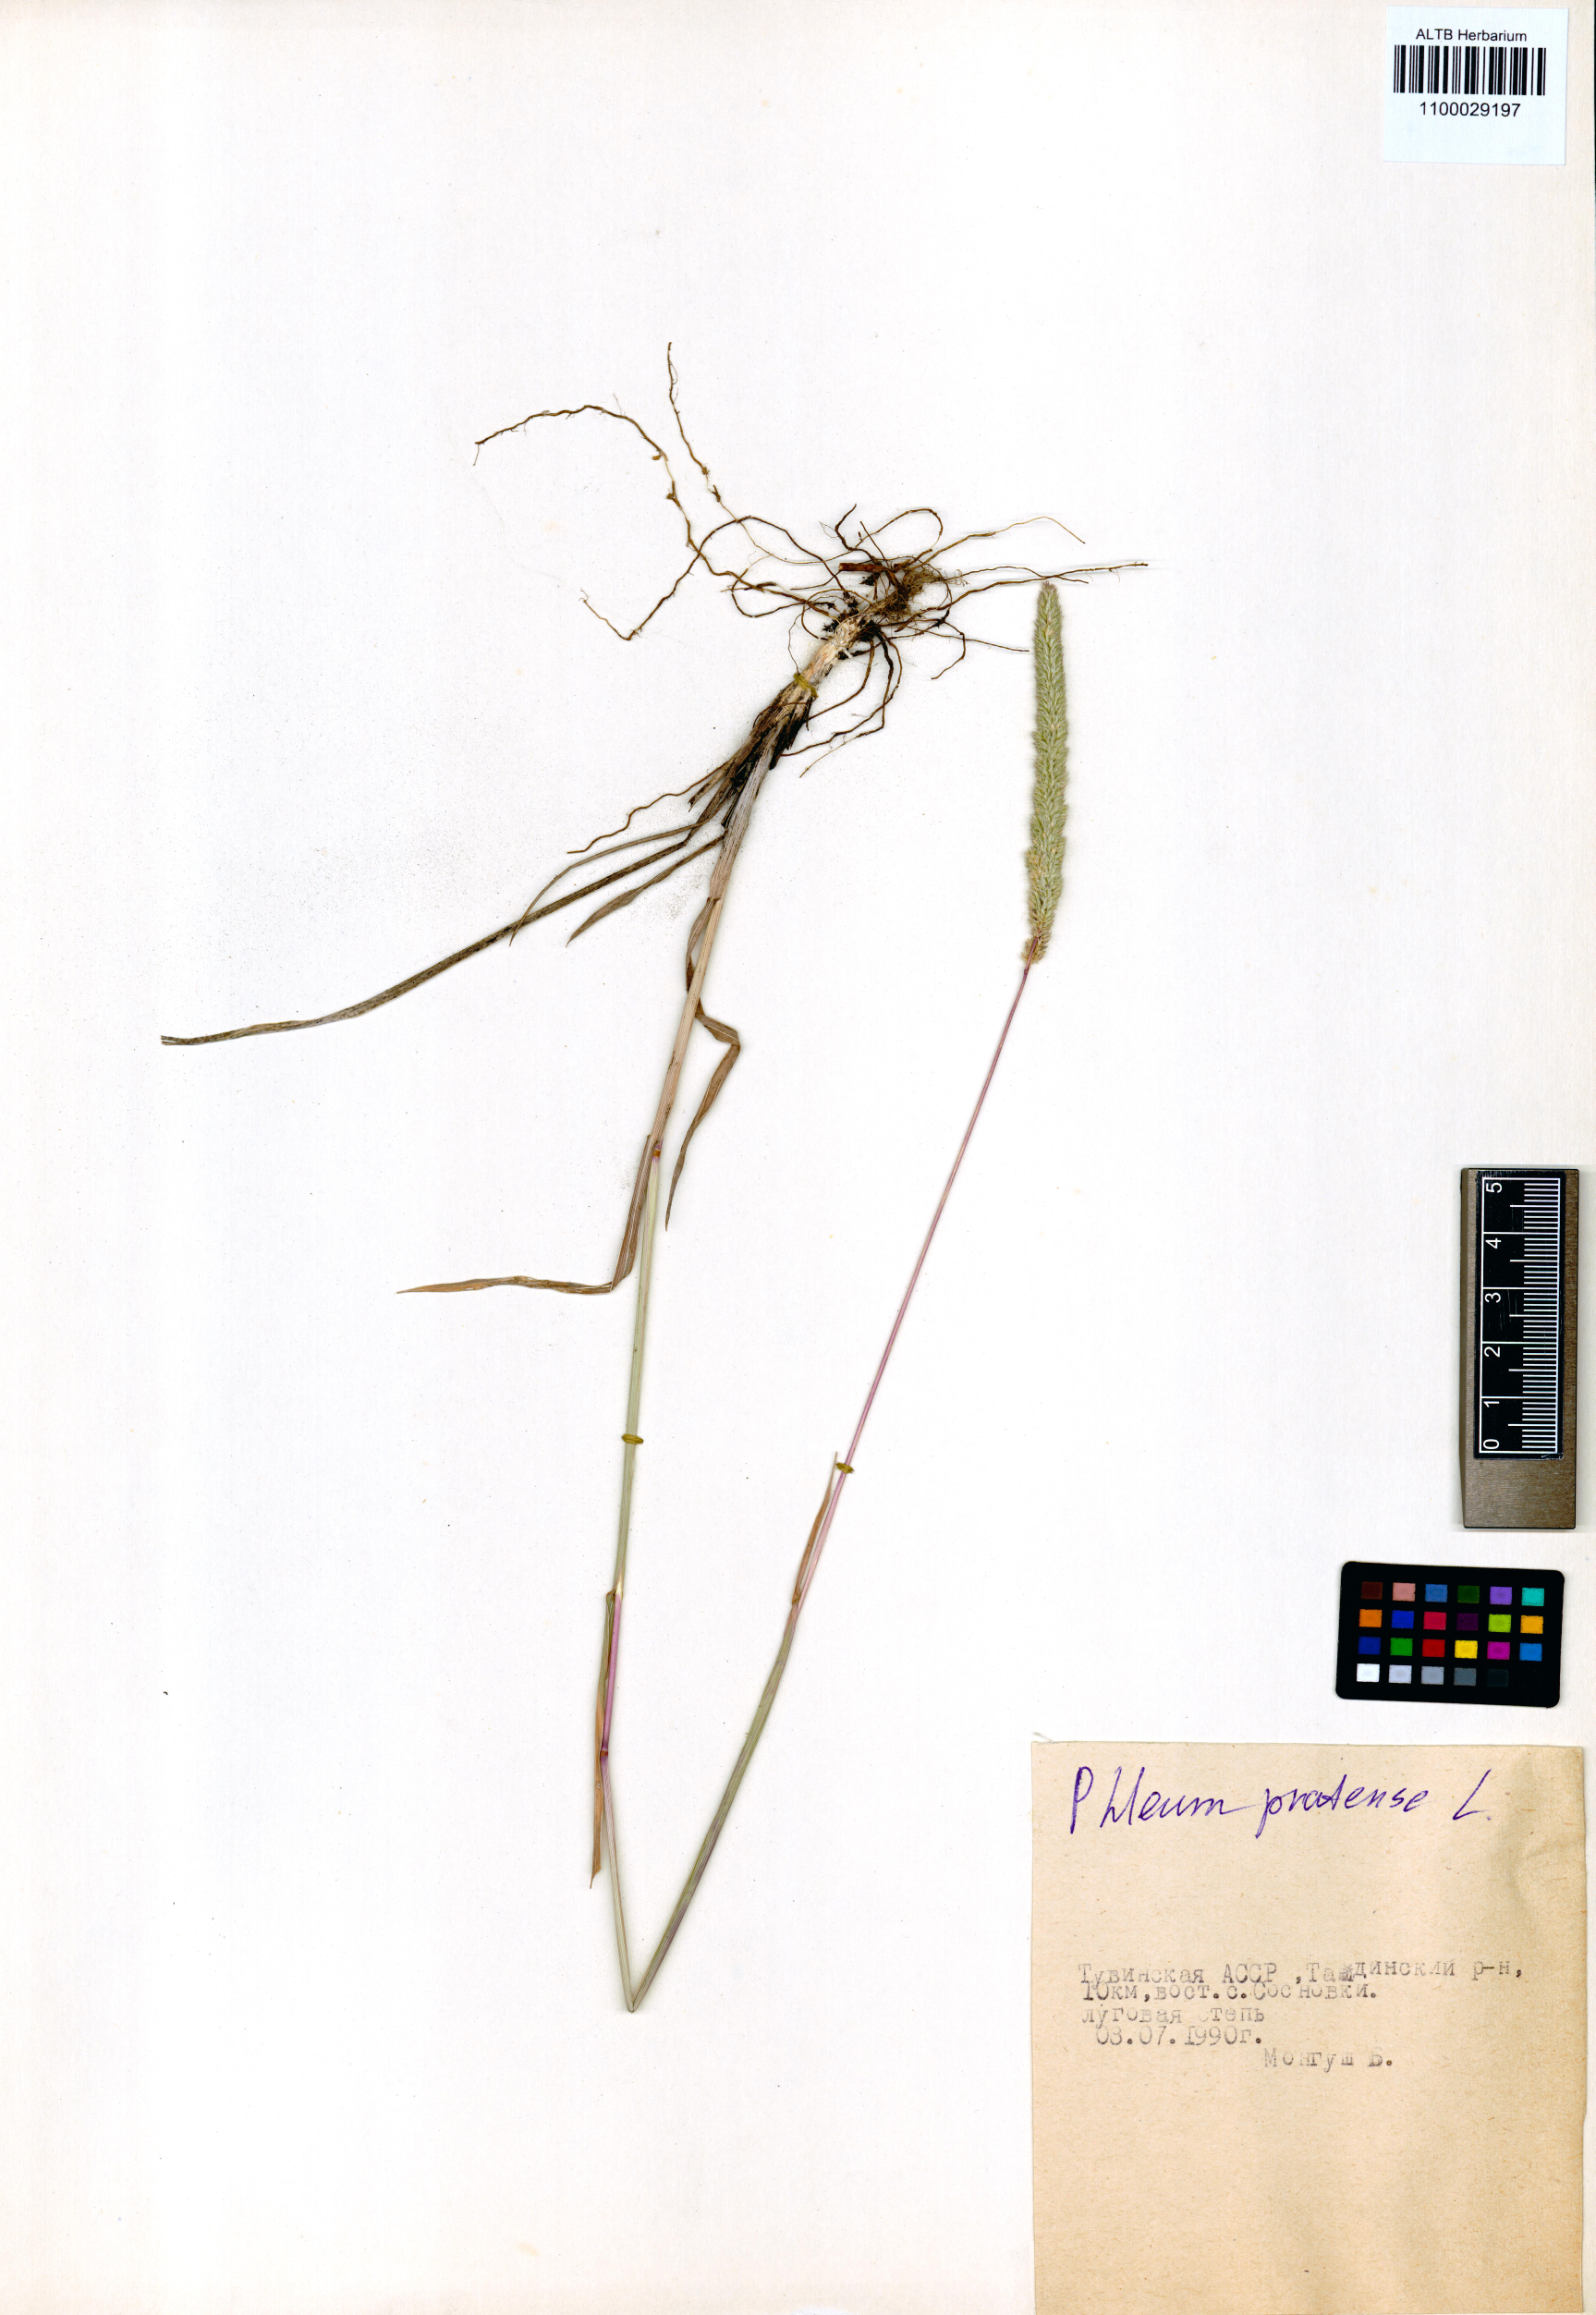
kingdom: Plantae
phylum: Tracheophyta
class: Liliopsida
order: Poales
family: Poaceae
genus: Phleum
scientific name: Phleum pratense
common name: Timothy grass
